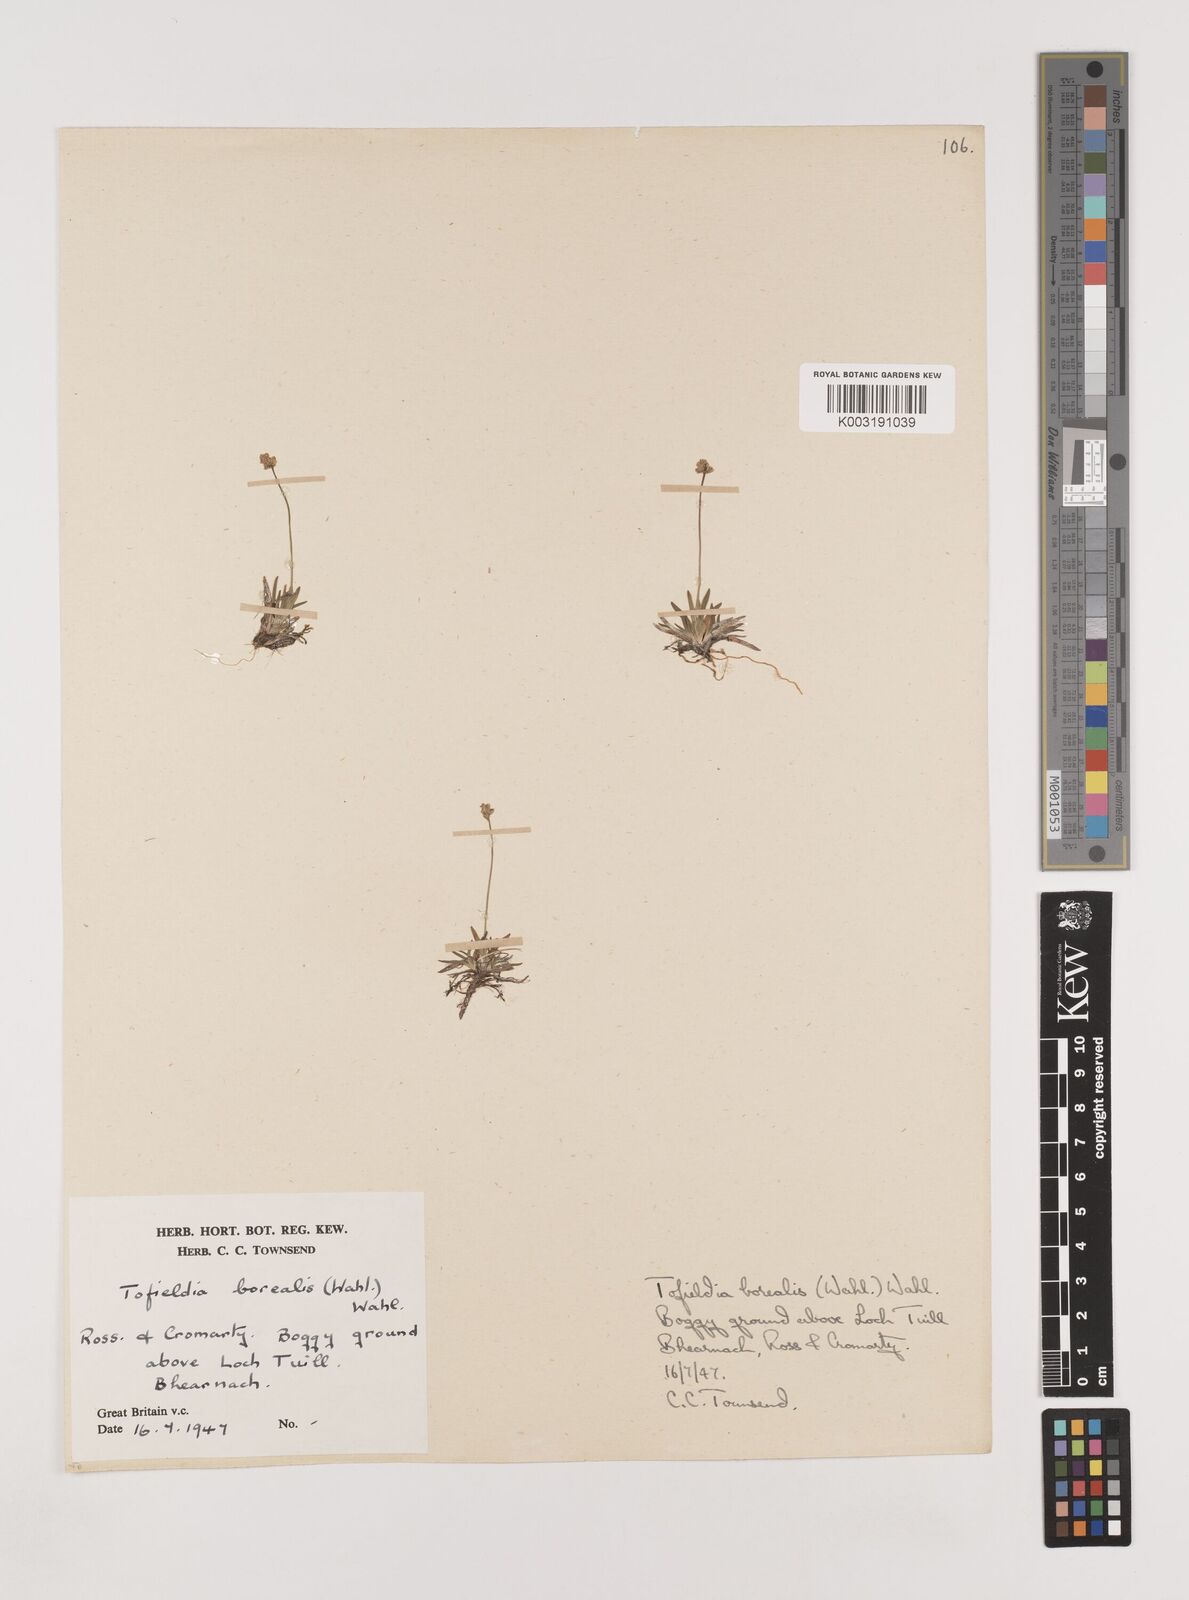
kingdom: Plantae
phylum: Tracheophyta
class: Liliopsida
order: Alismatales
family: Tofieldiaceae
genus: Tofieldia
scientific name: Tofieldia pusilla
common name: Scottish false asphodel
